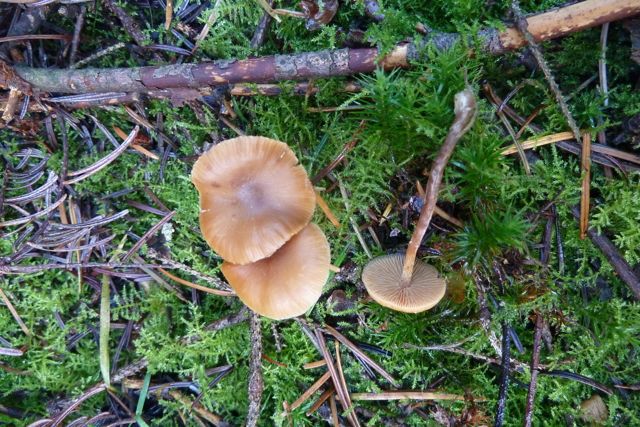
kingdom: Fungi
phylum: Basidiomycota
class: Agaricomycetes
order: Agaricales
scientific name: Agaricales
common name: champignonordenen
